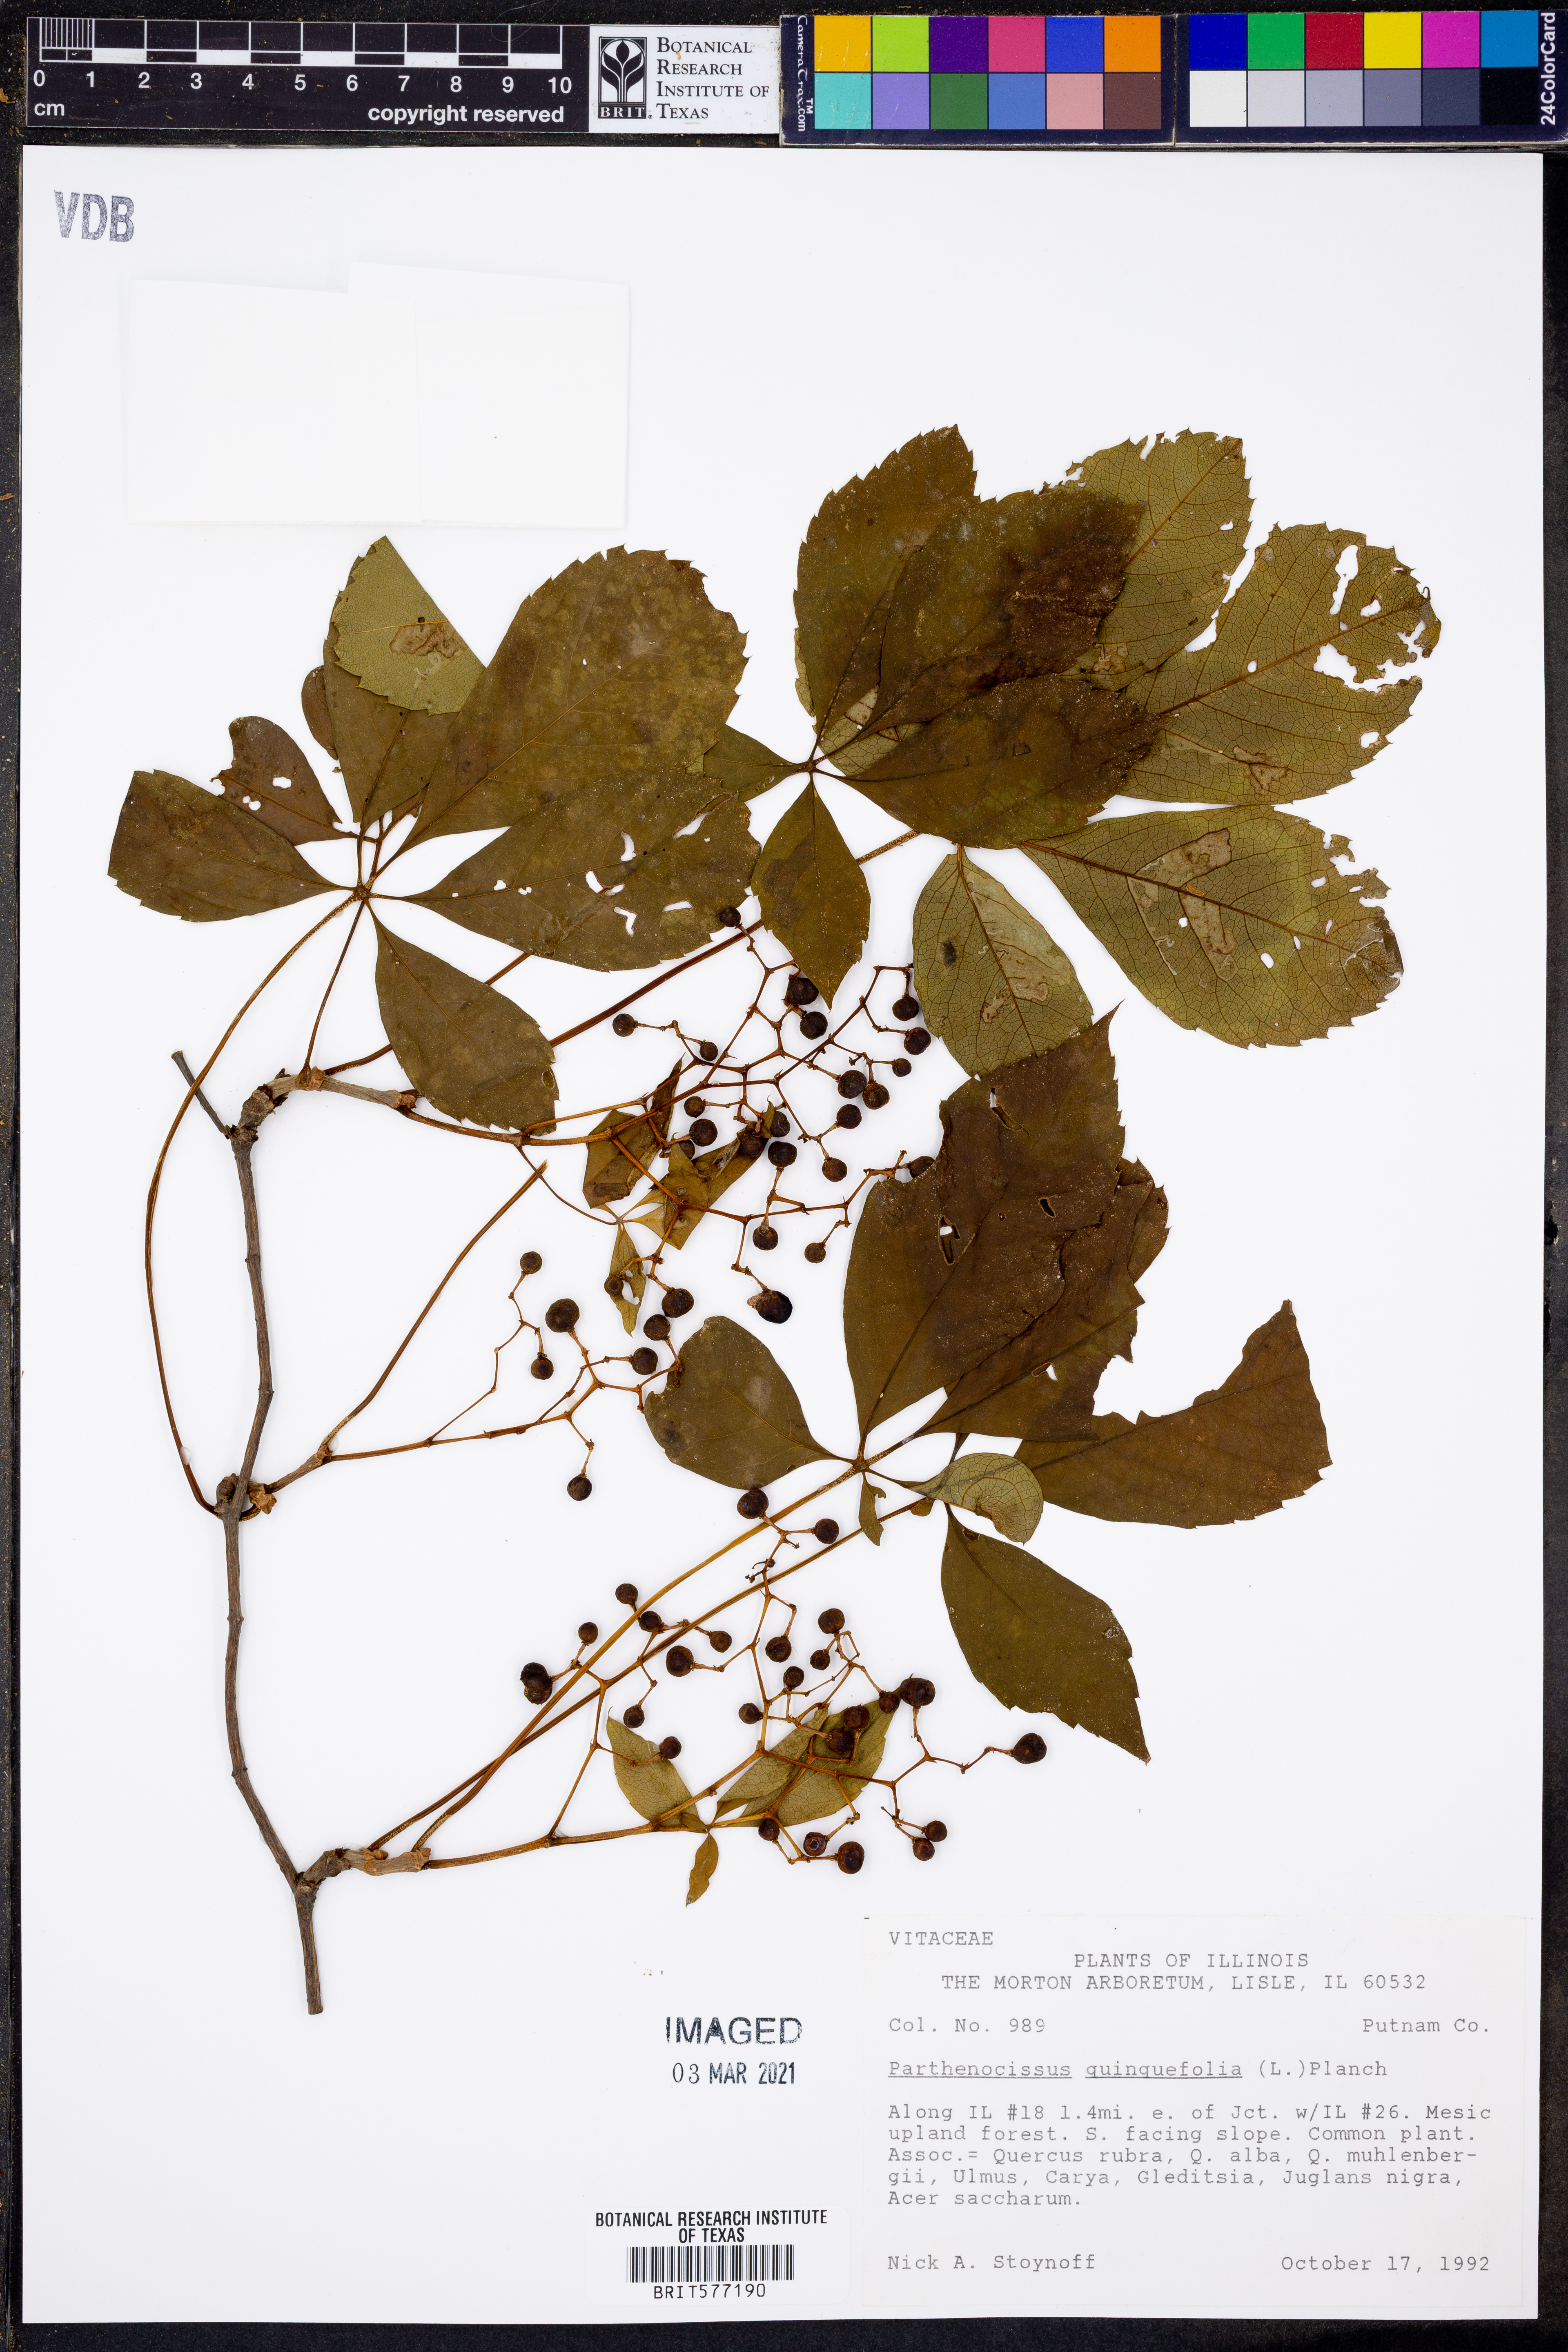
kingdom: Plantae
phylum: Tracheophyta
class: Magnoliopsida
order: Vitales
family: Vitaceae
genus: Parthenocissus
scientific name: Parthenocissus quinquefolia
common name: Virginia-creeper
